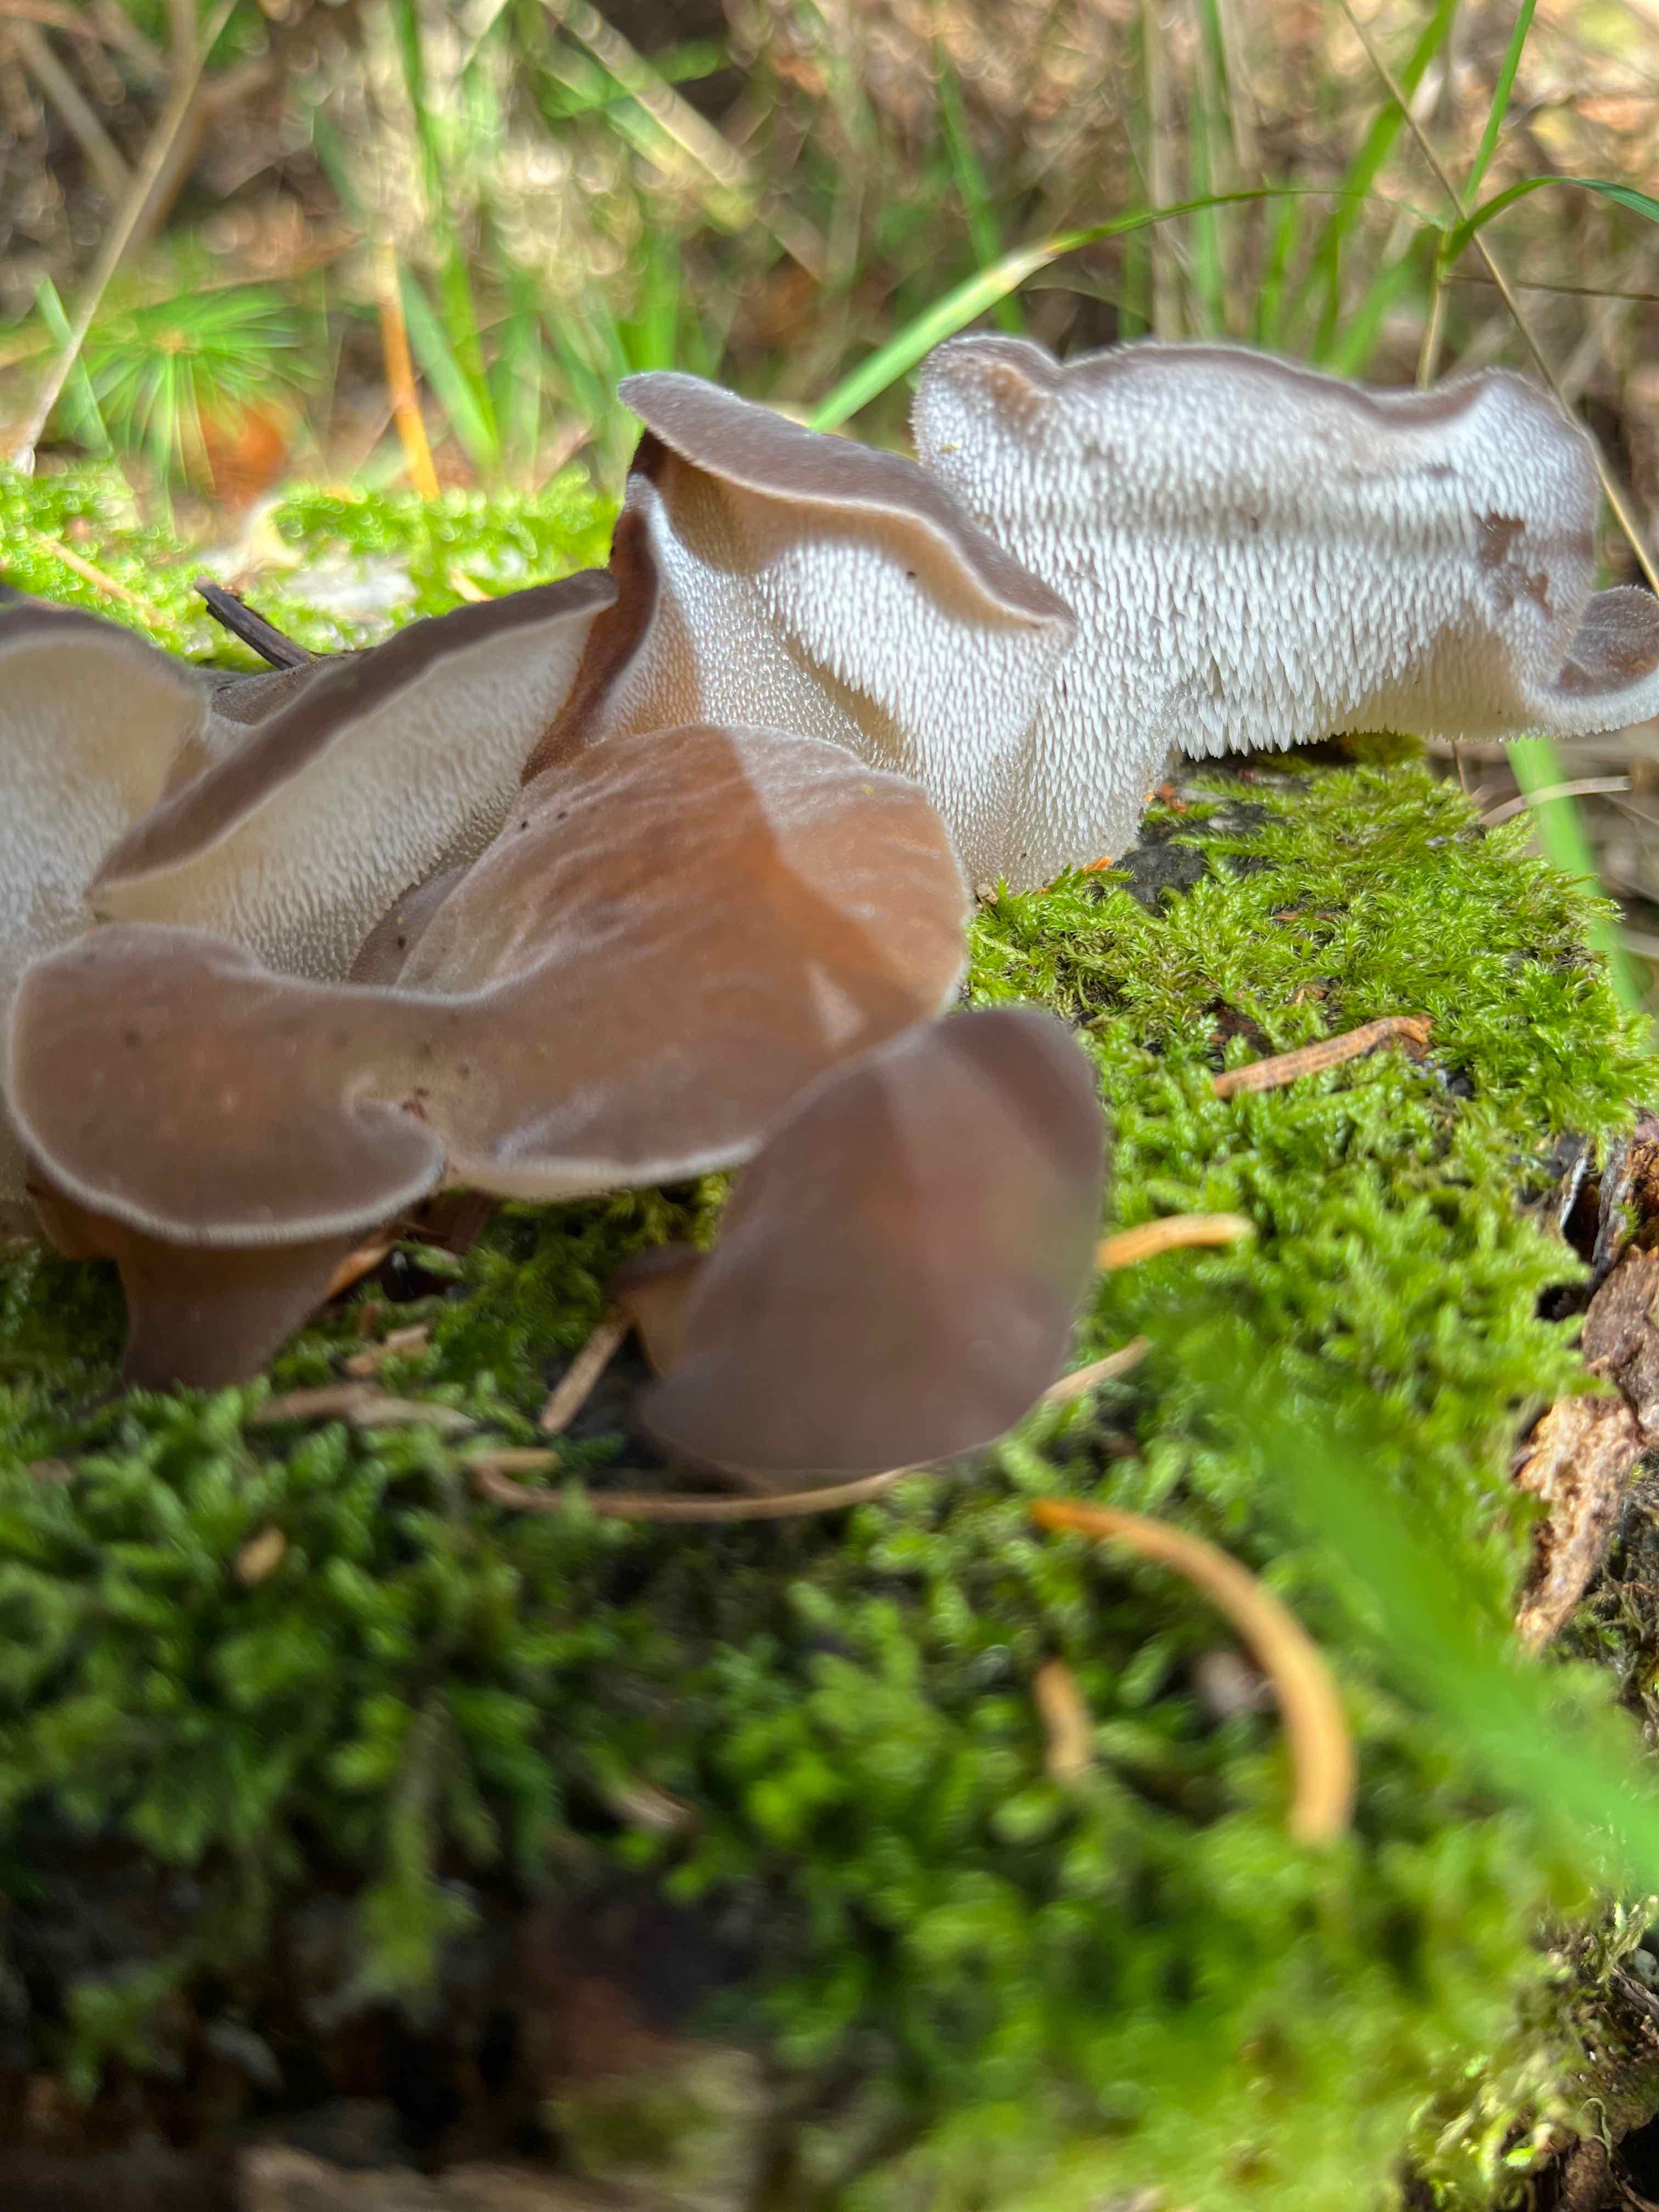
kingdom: Fungi
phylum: Basidiomycota
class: Agaricomycetes
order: Auriculariales
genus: Pseudohydnum
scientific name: Pseudohydnum gelatinosum
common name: bævretand
